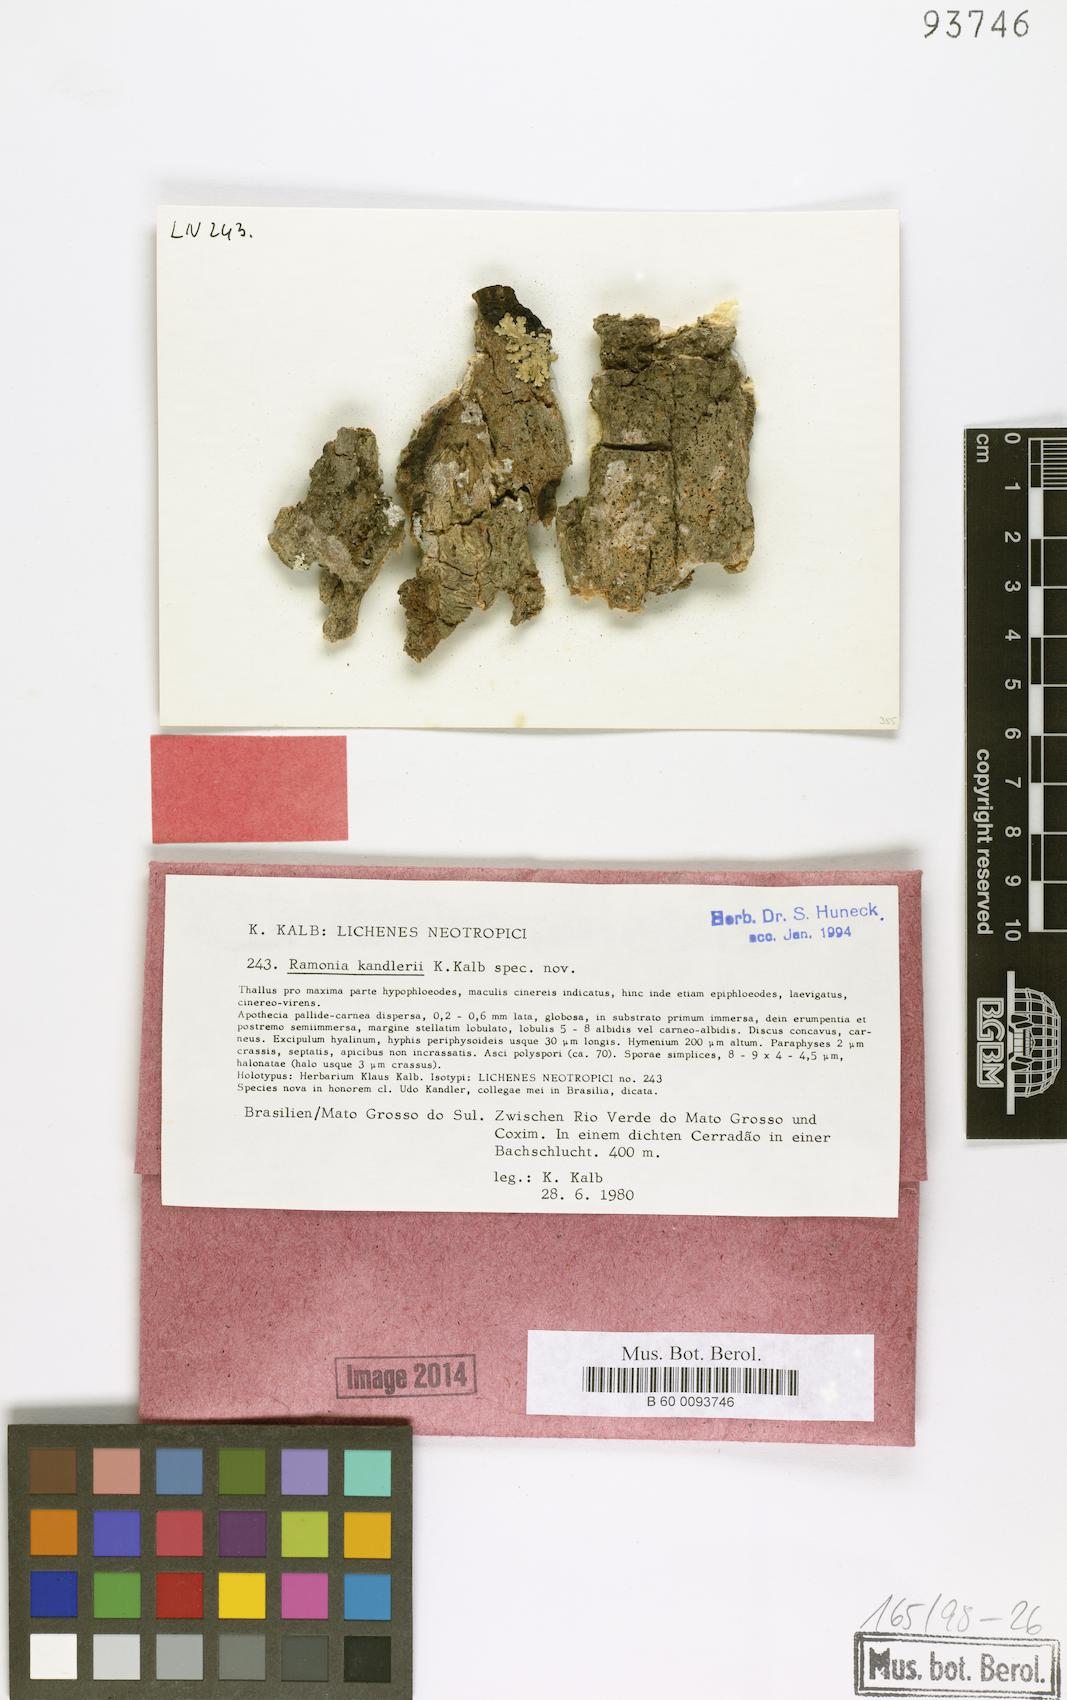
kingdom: Fungi
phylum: Ascomycota
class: Lecanoromycetes
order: Gyalectales
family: Gyalectaceae
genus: Ramonia
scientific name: Ramonia kandlerii
